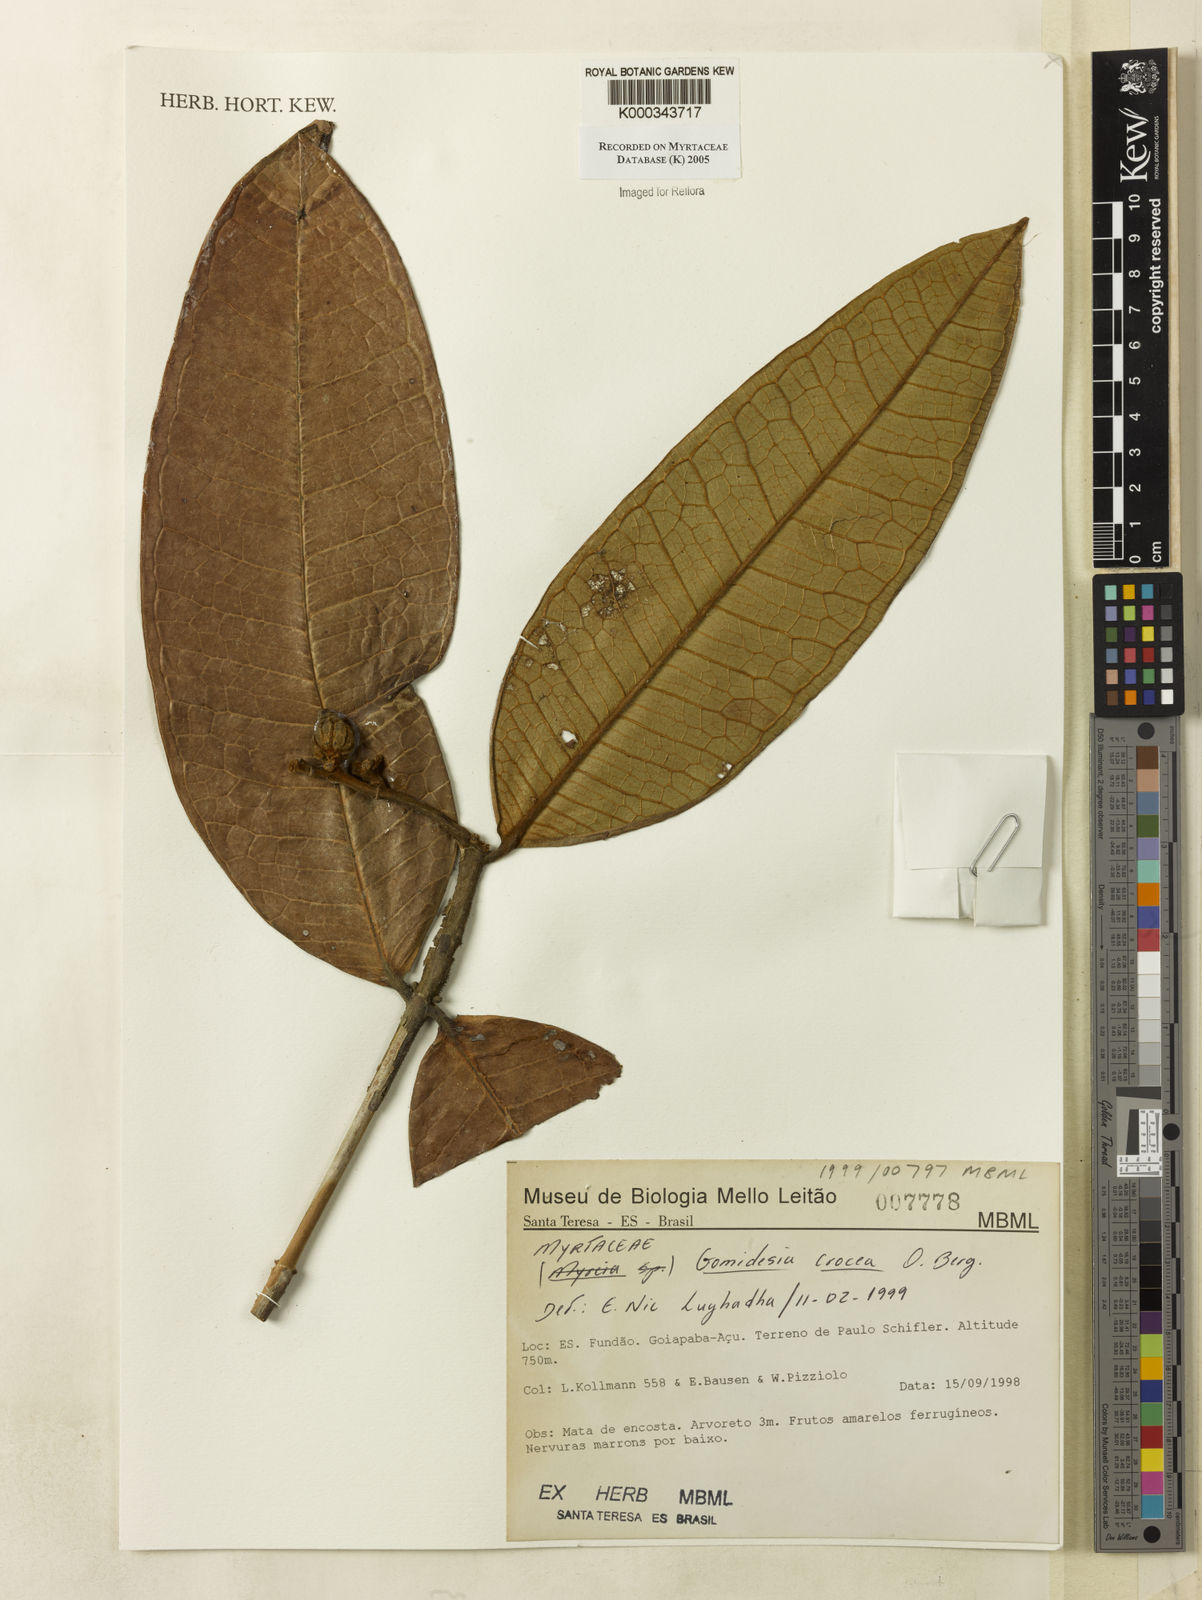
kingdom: Plantae
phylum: Tracheophyta
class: Magnoliopsida
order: Myrtales
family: Myrtaceae
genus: Myrcia
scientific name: Myrcia amplexicaulis
